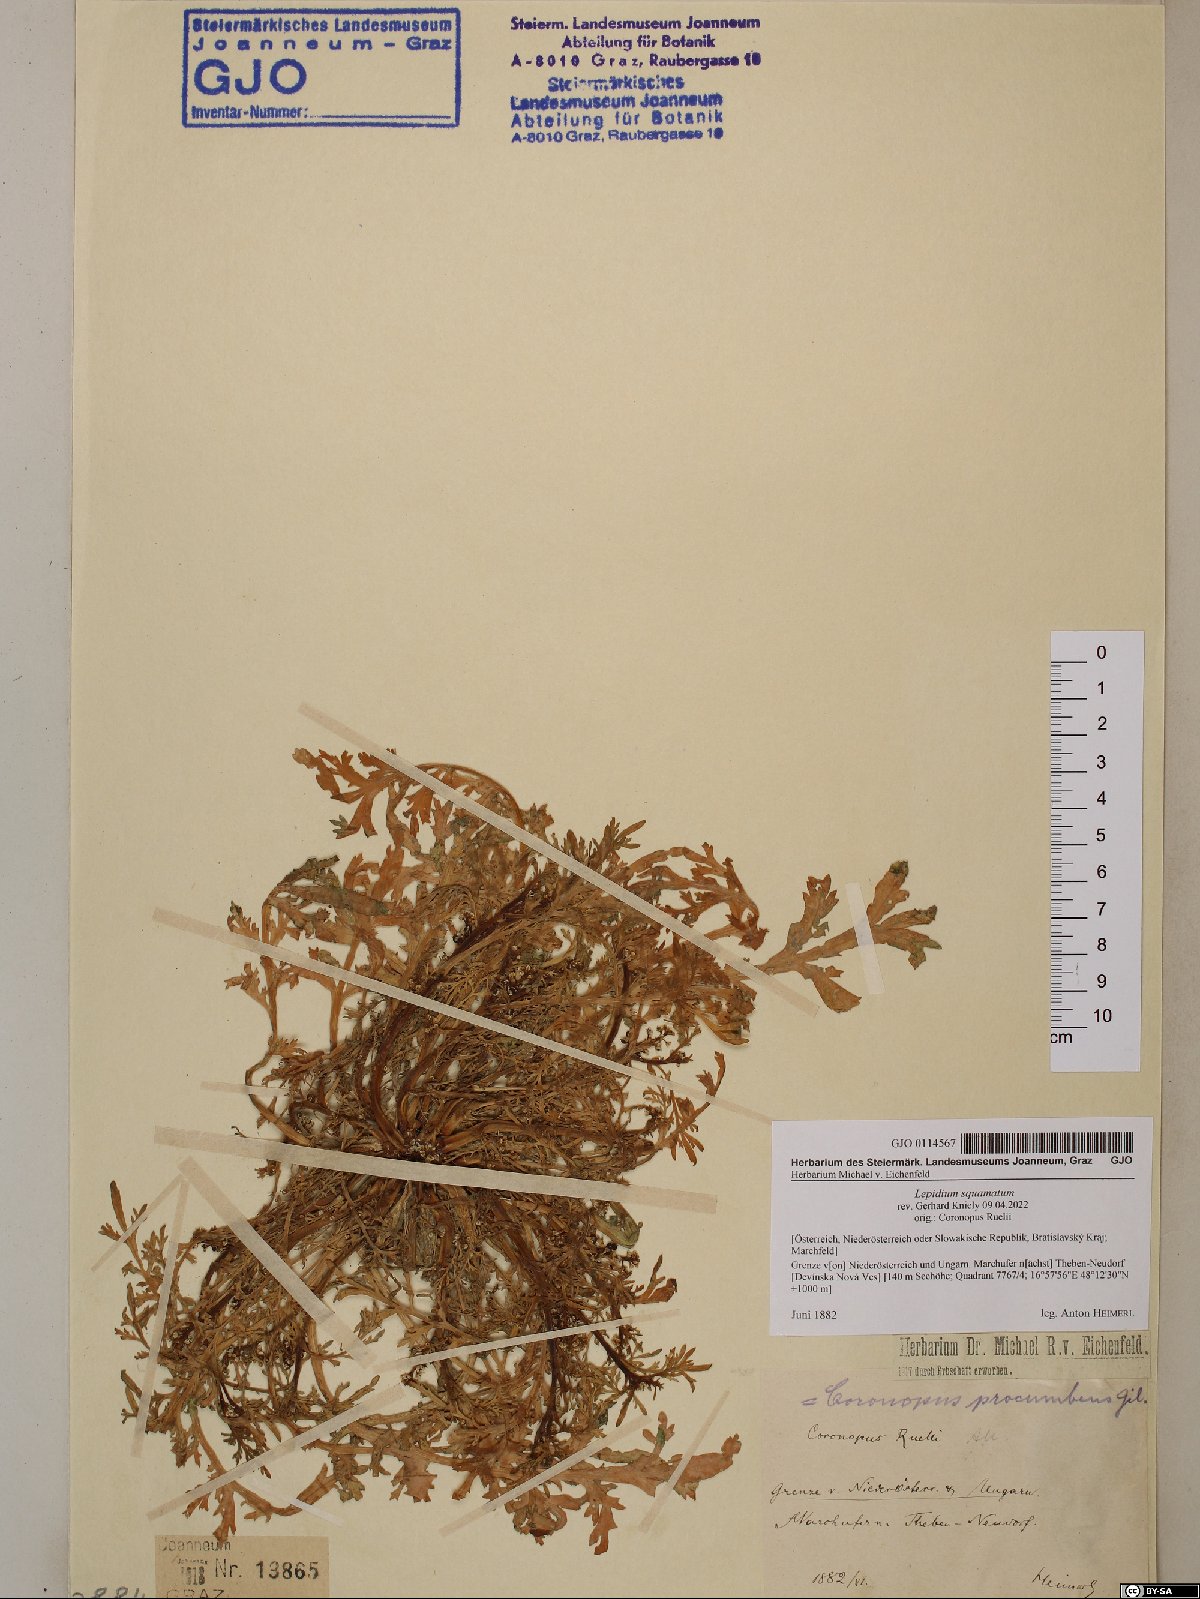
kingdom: Plantae
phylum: Tracheophyta
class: Magnoliopsida
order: Brassicales
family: Brassicaceae
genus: Lepidium
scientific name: Lepidium coronopus
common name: Greater swinecress
